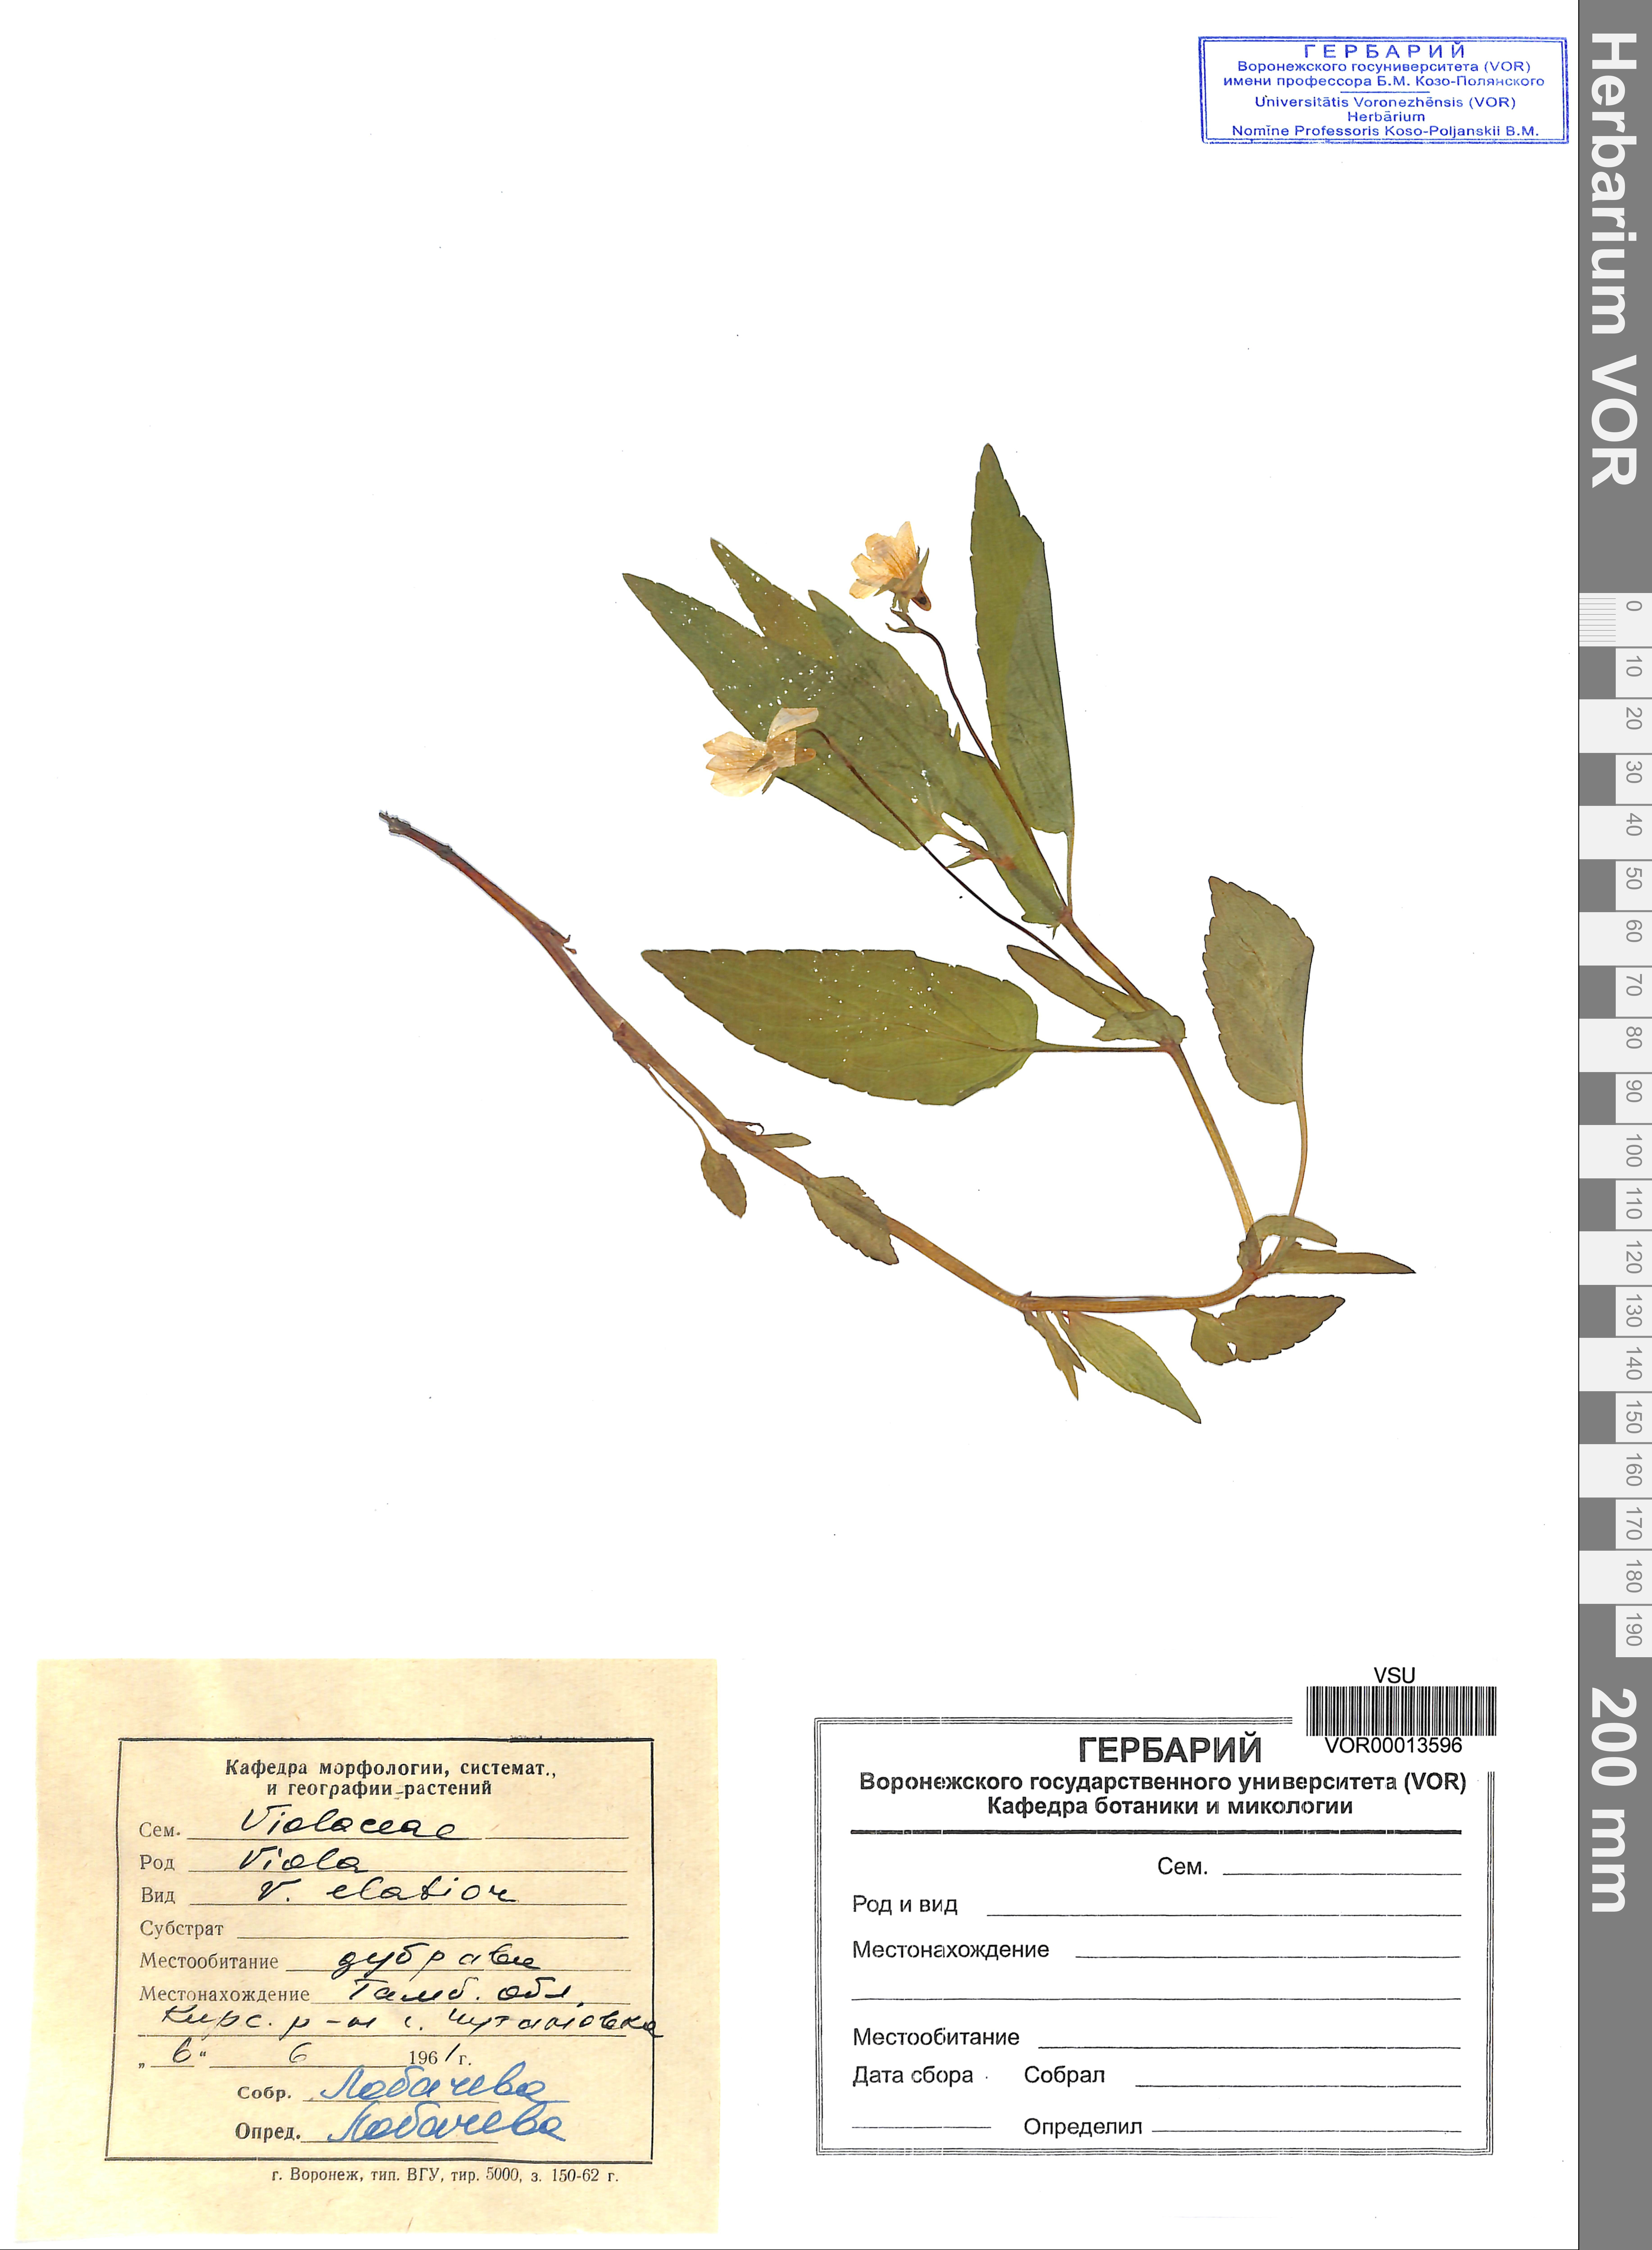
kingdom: Plantae
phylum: Tracheophyta
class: Magnoliopsida
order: Malpighiales
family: Violaceae
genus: Viola
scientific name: Viola elatior
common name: Tall violet
